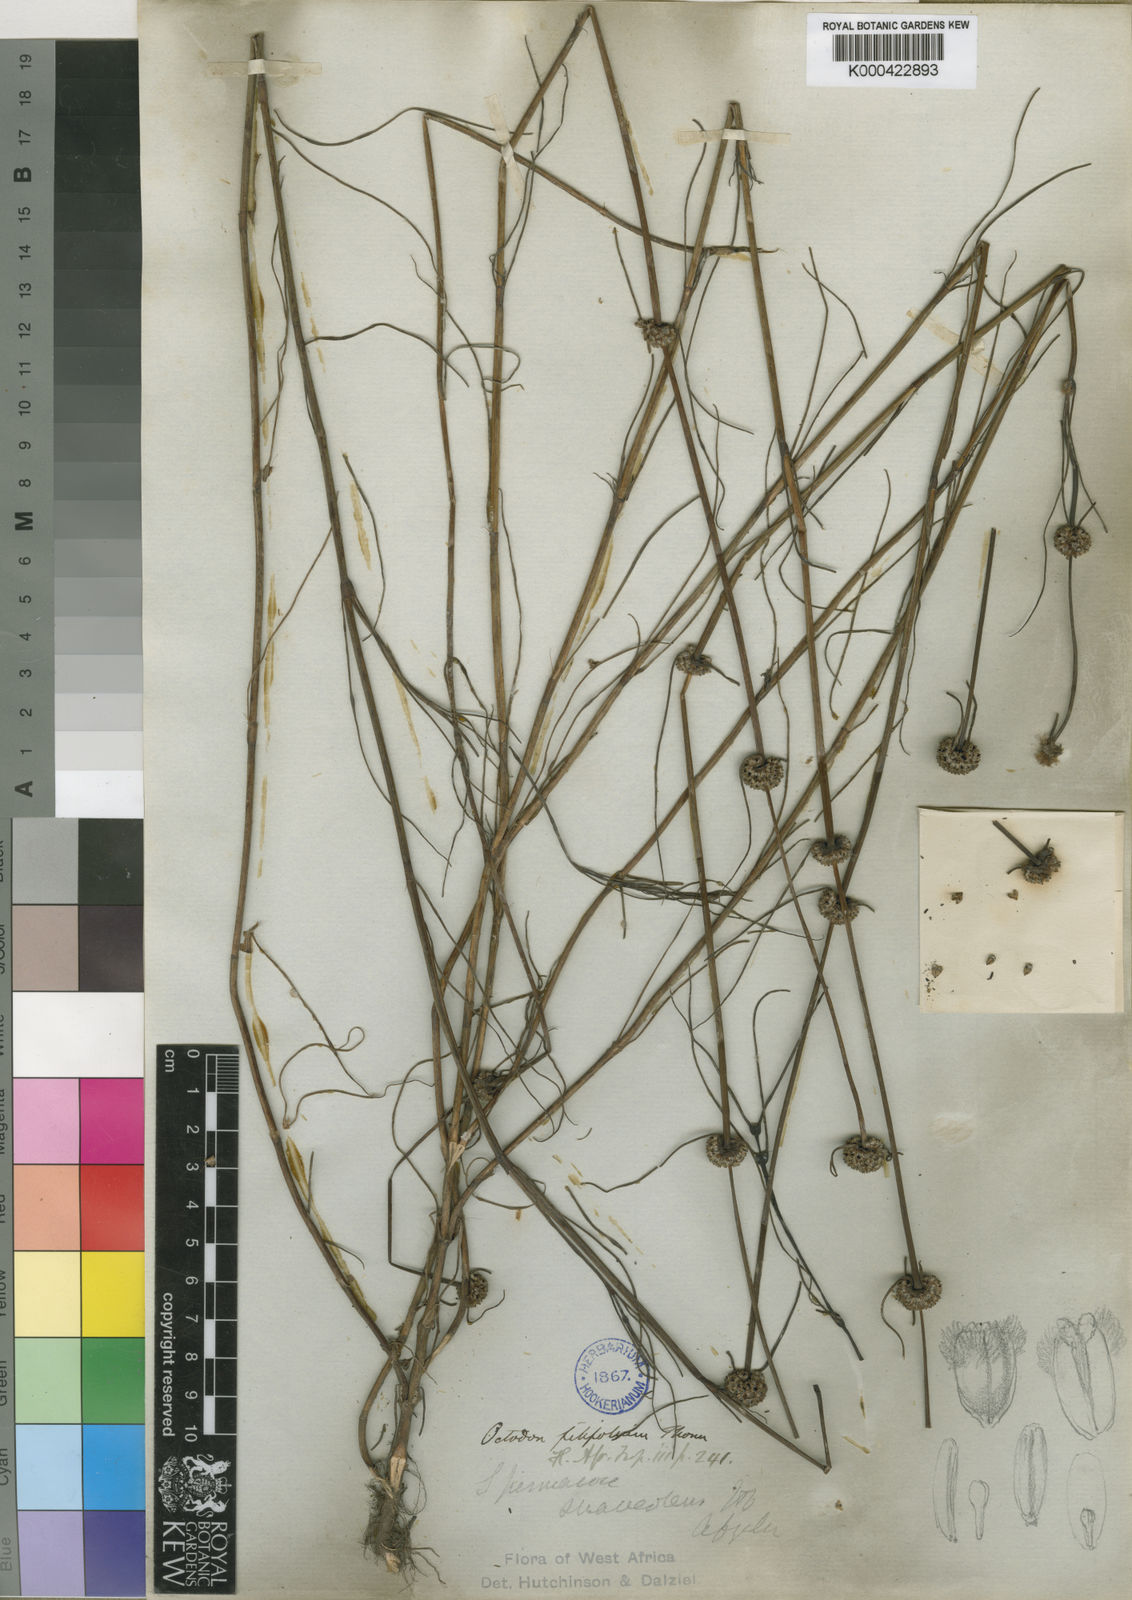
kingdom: Plantae
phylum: Tracheophyta
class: Magnoliopsida
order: Gentianales
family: Rubiaceae
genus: Spermacoce
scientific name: Spermacoce filifolia
